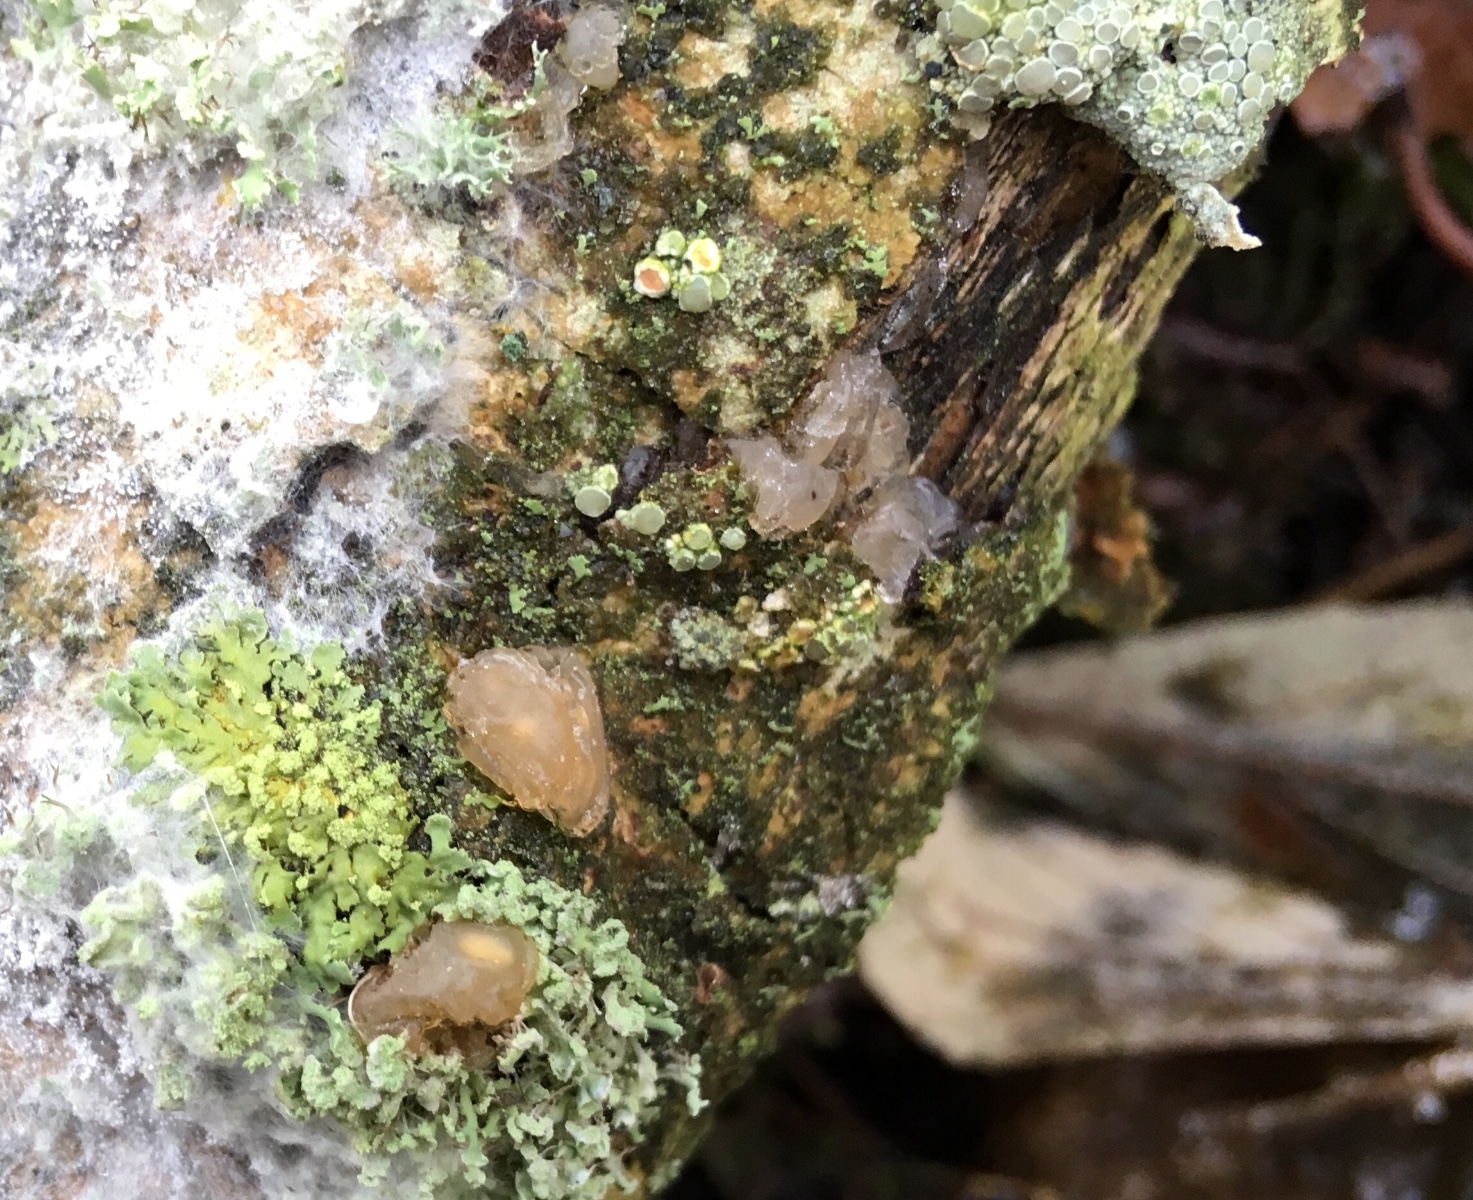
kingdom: Fungi
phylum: Basidiomycota
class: Agaricomycetes
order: Auriculariales
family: Hyaloriaceae
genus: Myxarium
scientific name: Myxarium nucleatum
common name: klar bævretop
